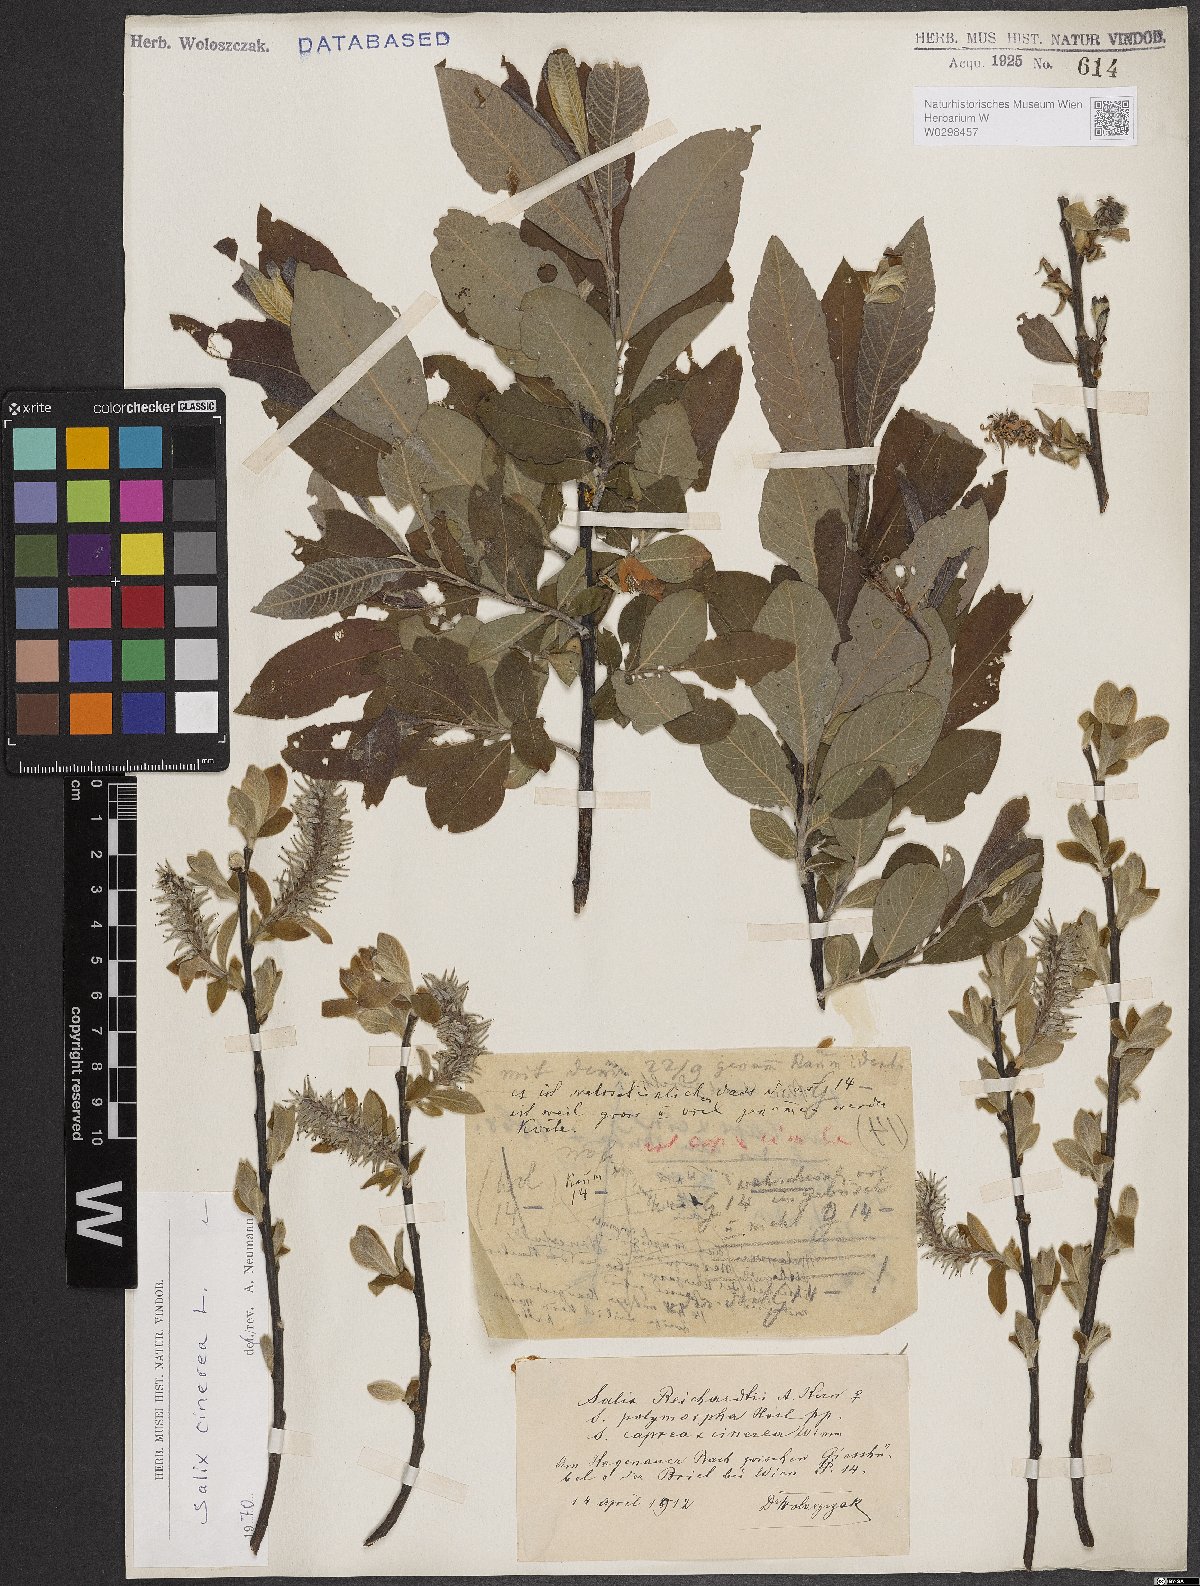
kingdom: Plantae
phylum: Tracheophyta
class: Magnoliopsida
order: Malpighiales
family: Salicaceae
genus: Salix
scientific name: Salix cinerea
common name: Common sallow
